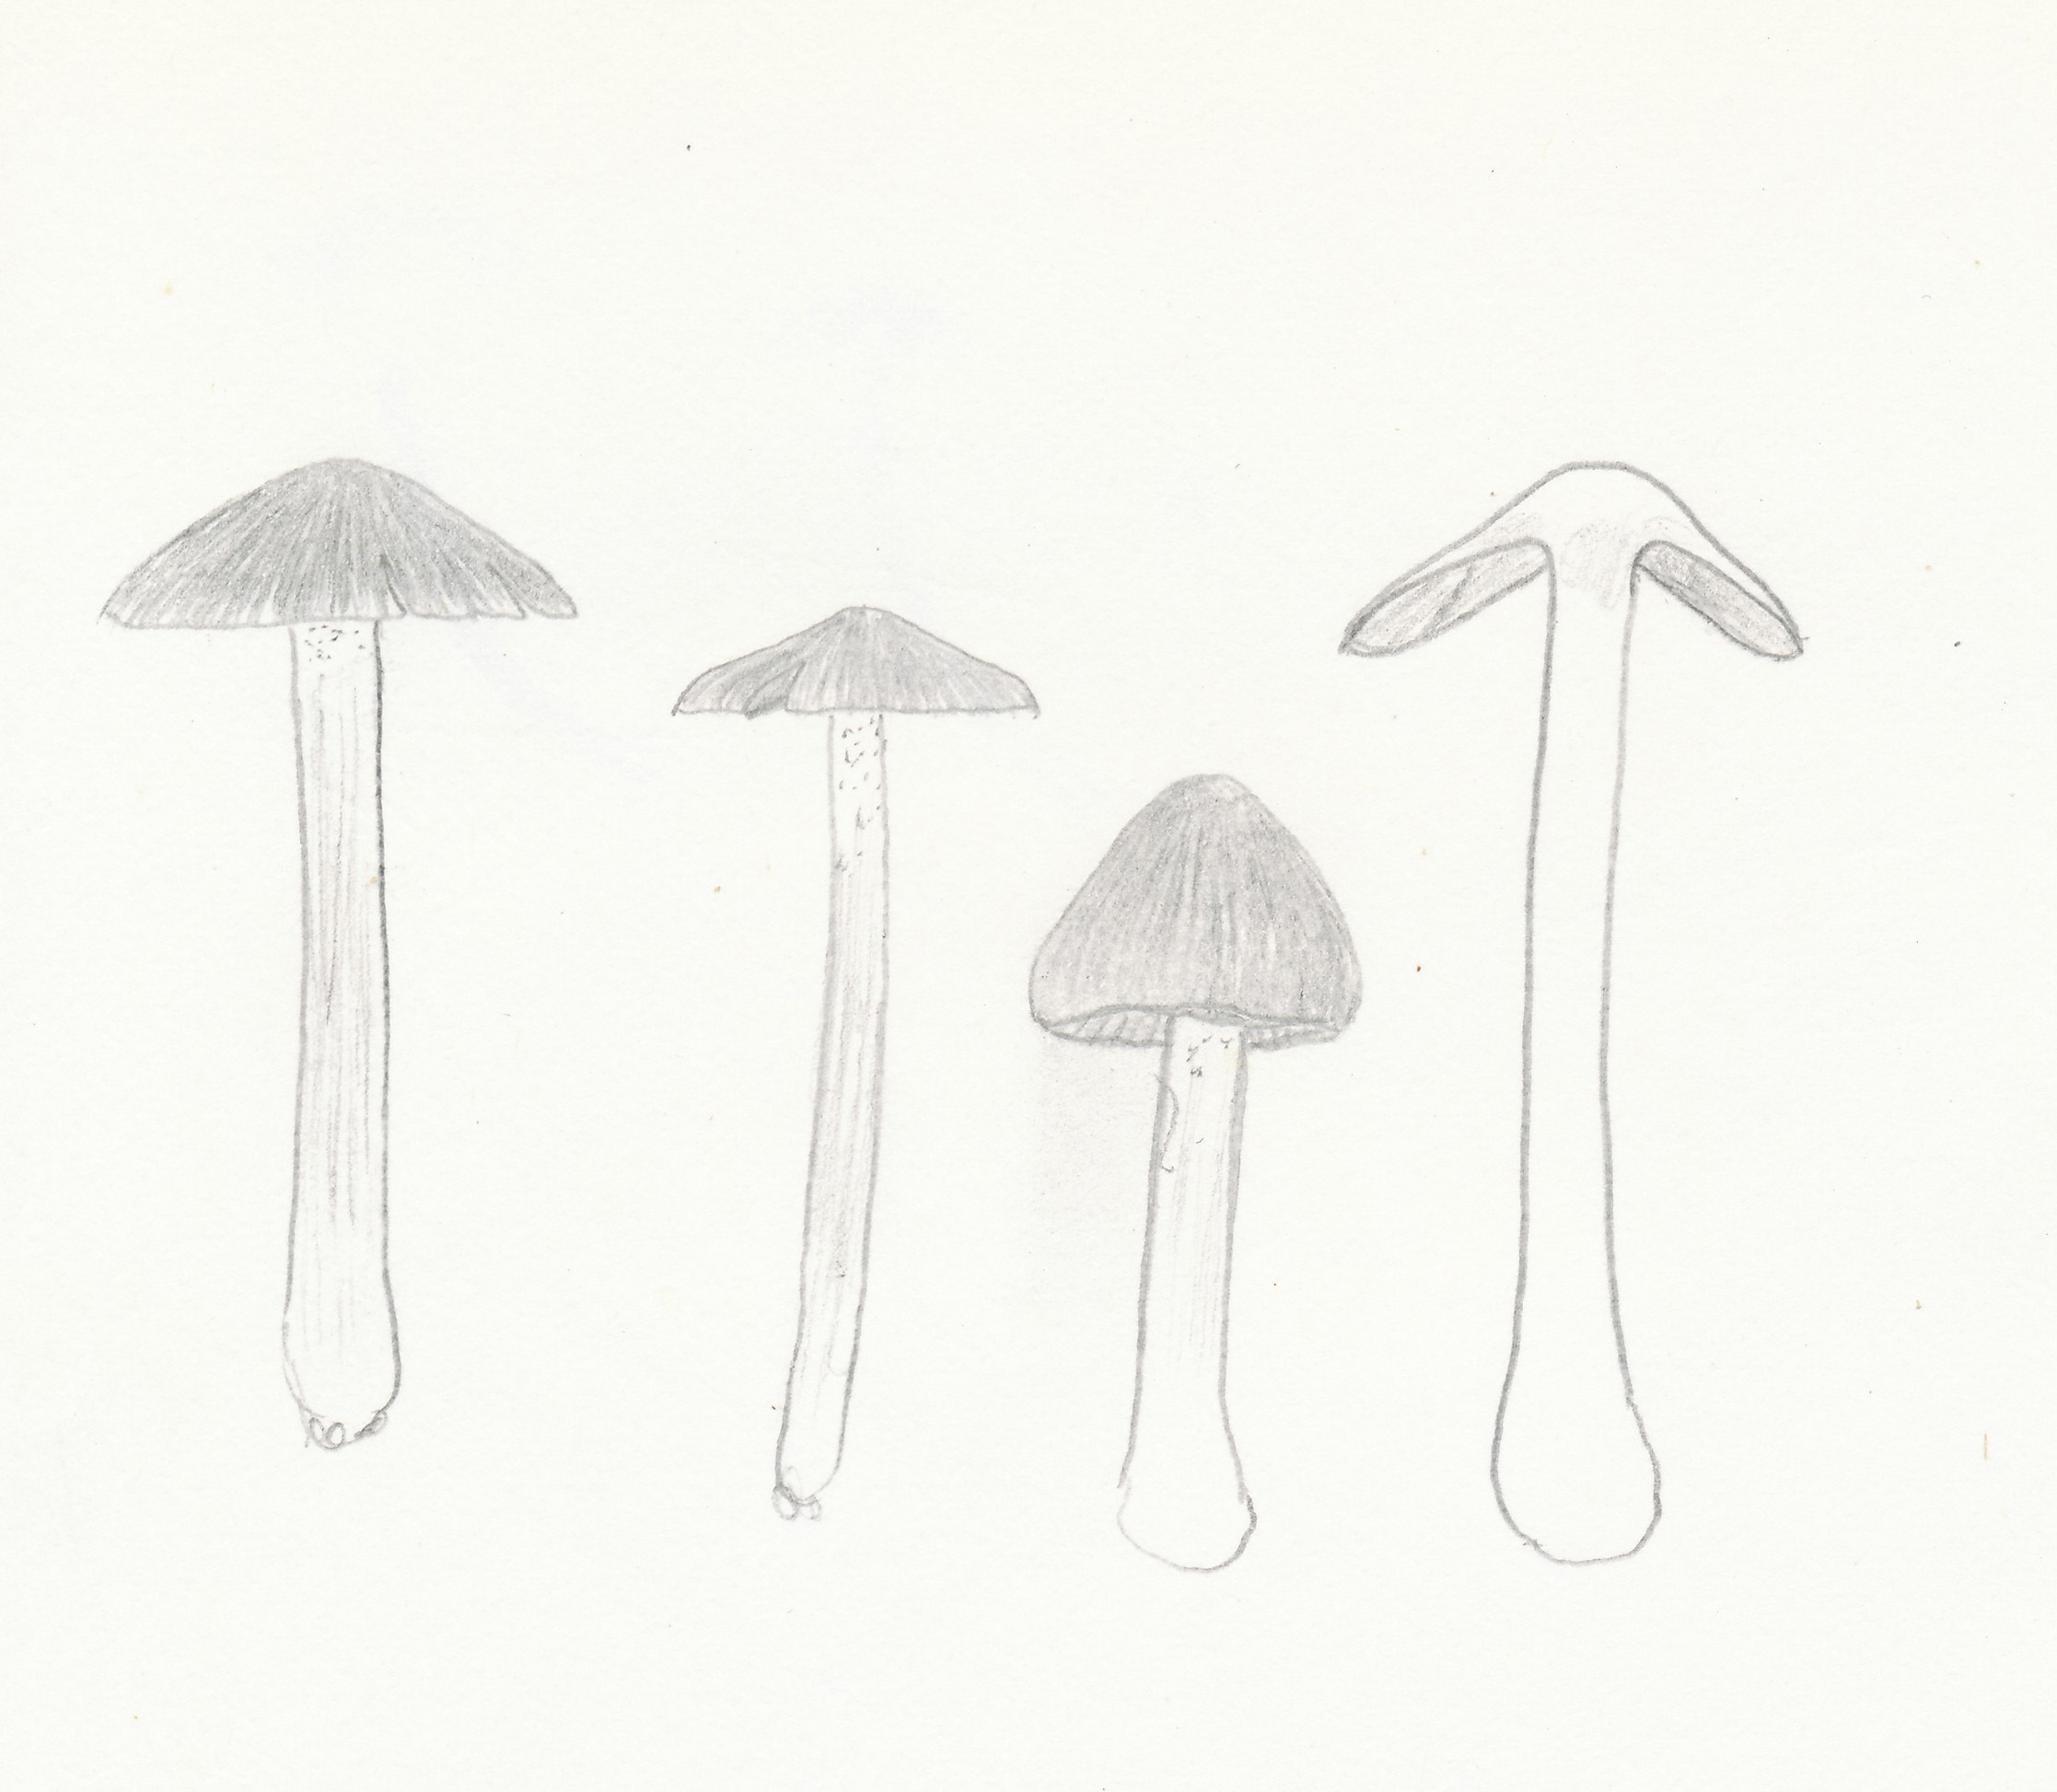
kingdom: Fungi
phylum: Basidiomycota
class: Agaricomycetes
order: Agaricales
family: Inocybaceae
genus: Inocybe
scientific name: Inocybe grammata
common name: lystoppet trævlhat
